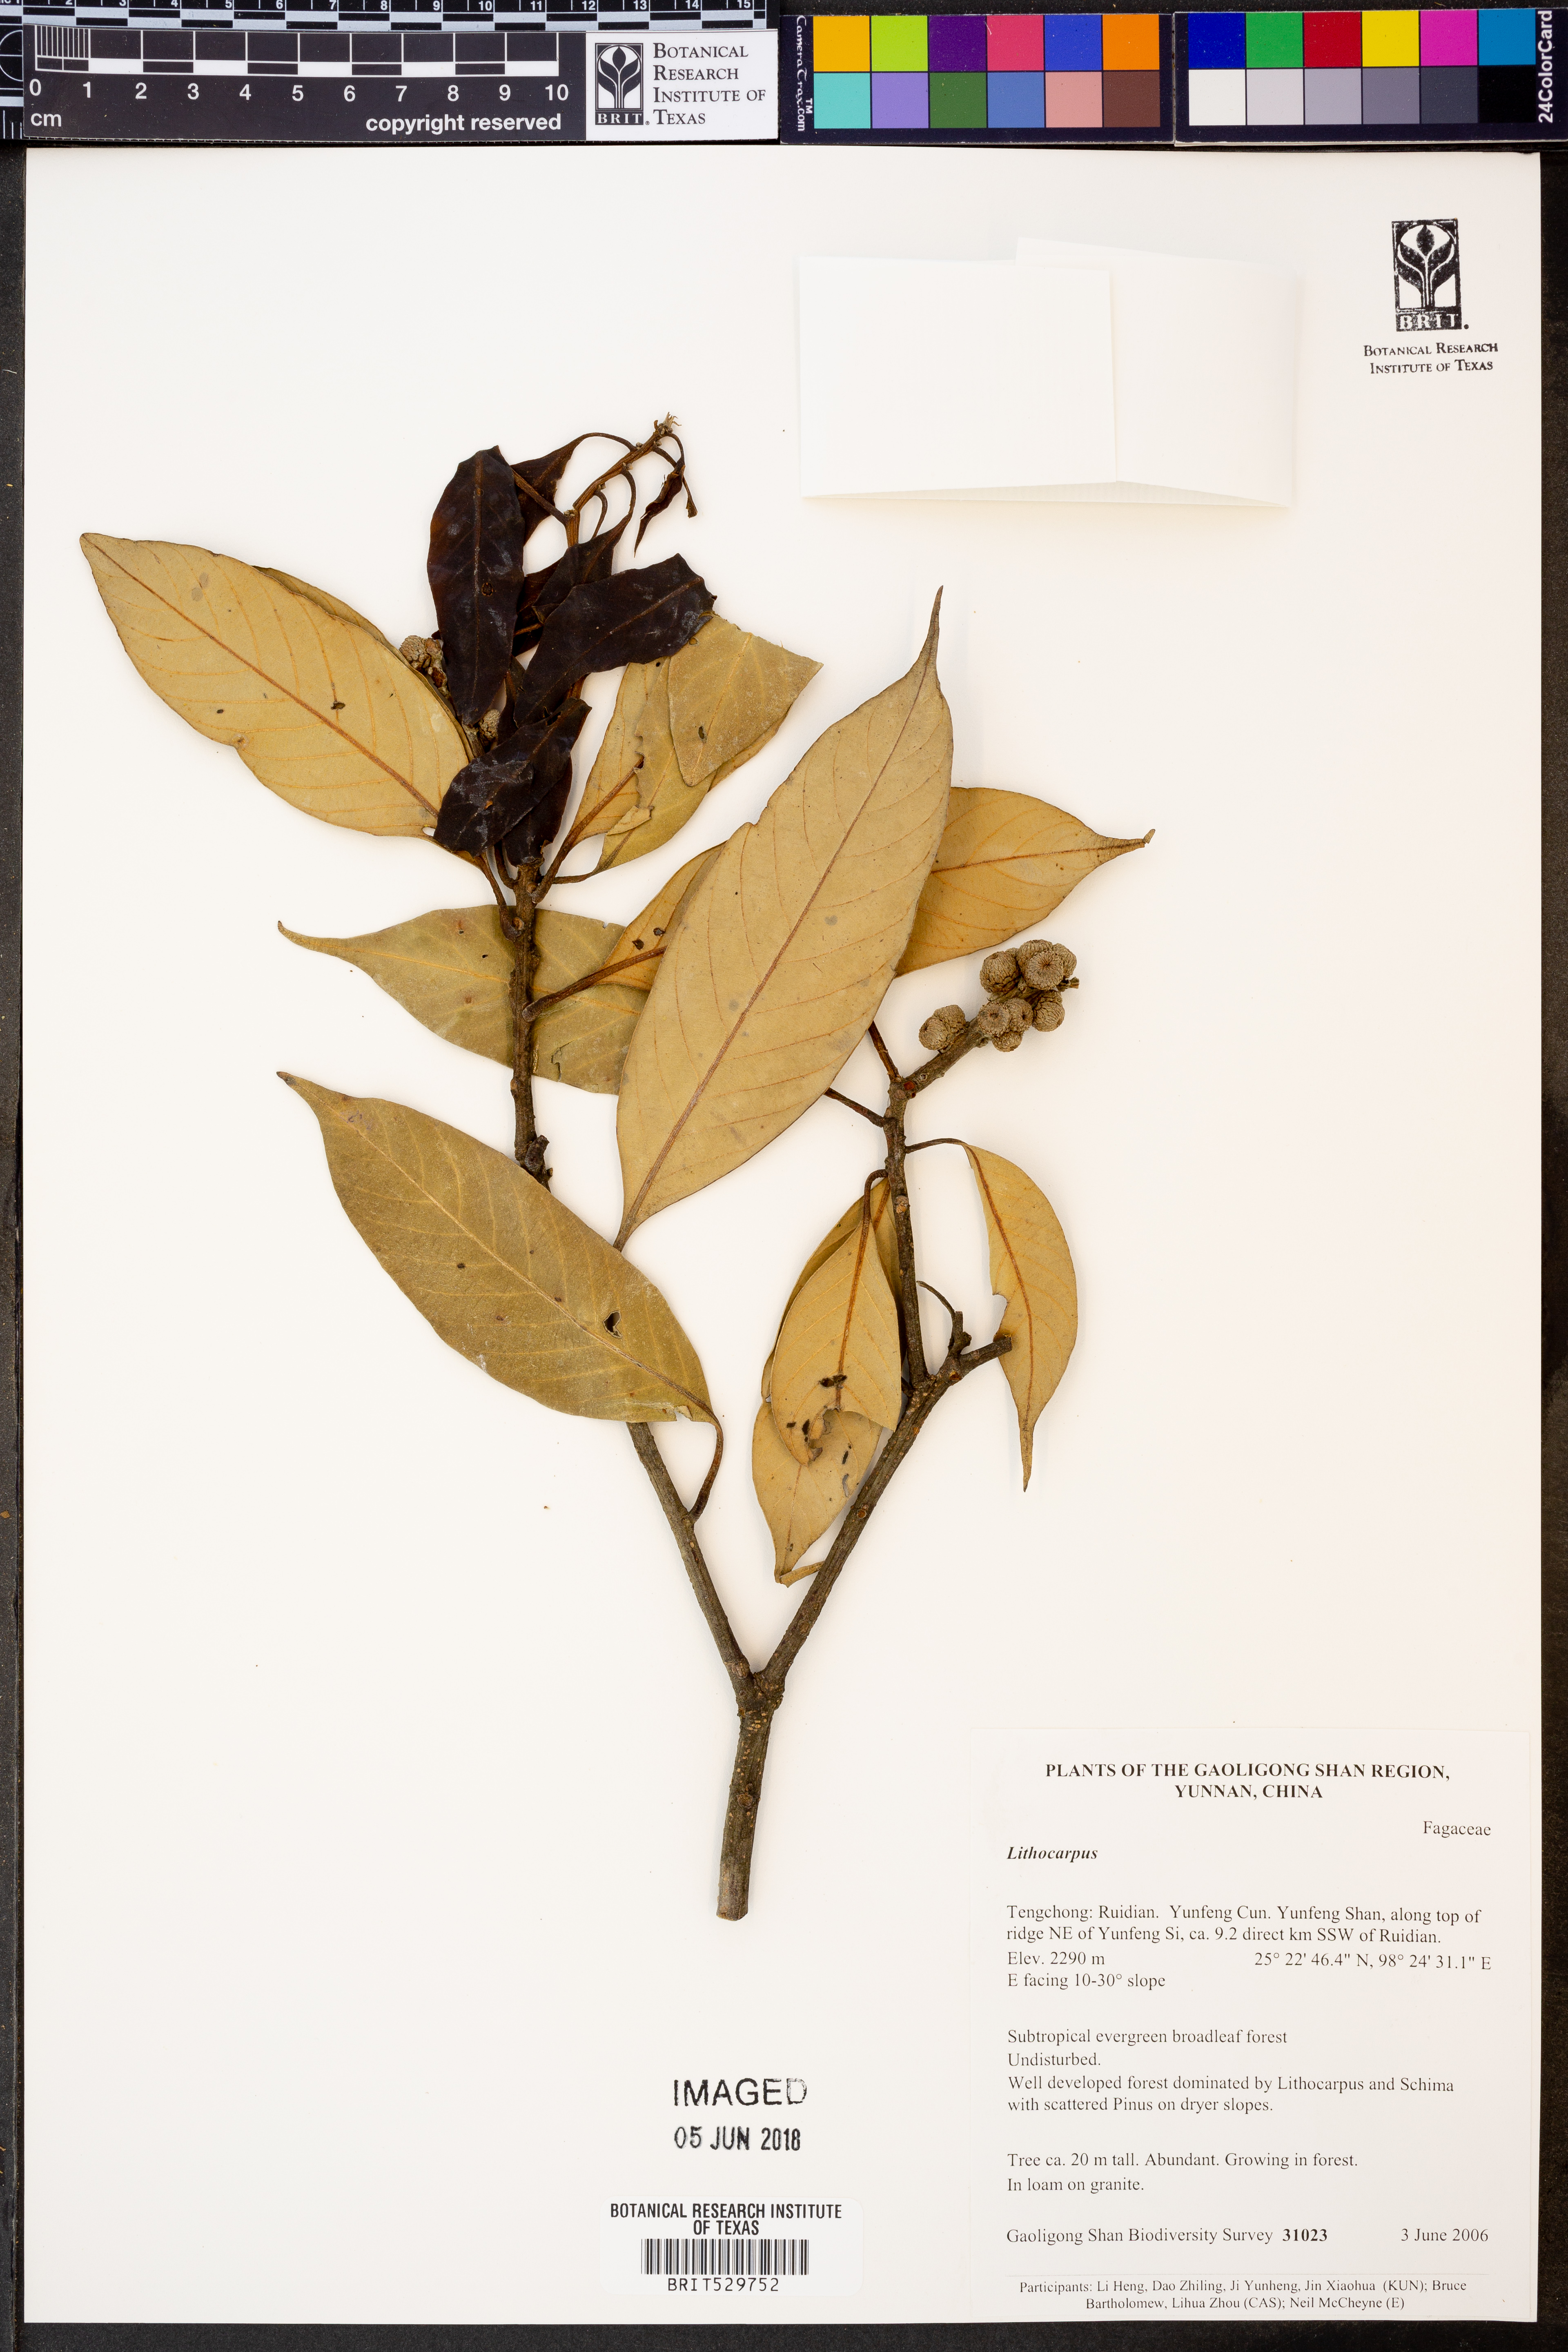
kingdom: Plantae
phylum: Tracheophyta
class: Magnoliopsida
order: Fagales
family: Fagaceae
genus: Lithocarpus
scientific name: Lithocarpus
